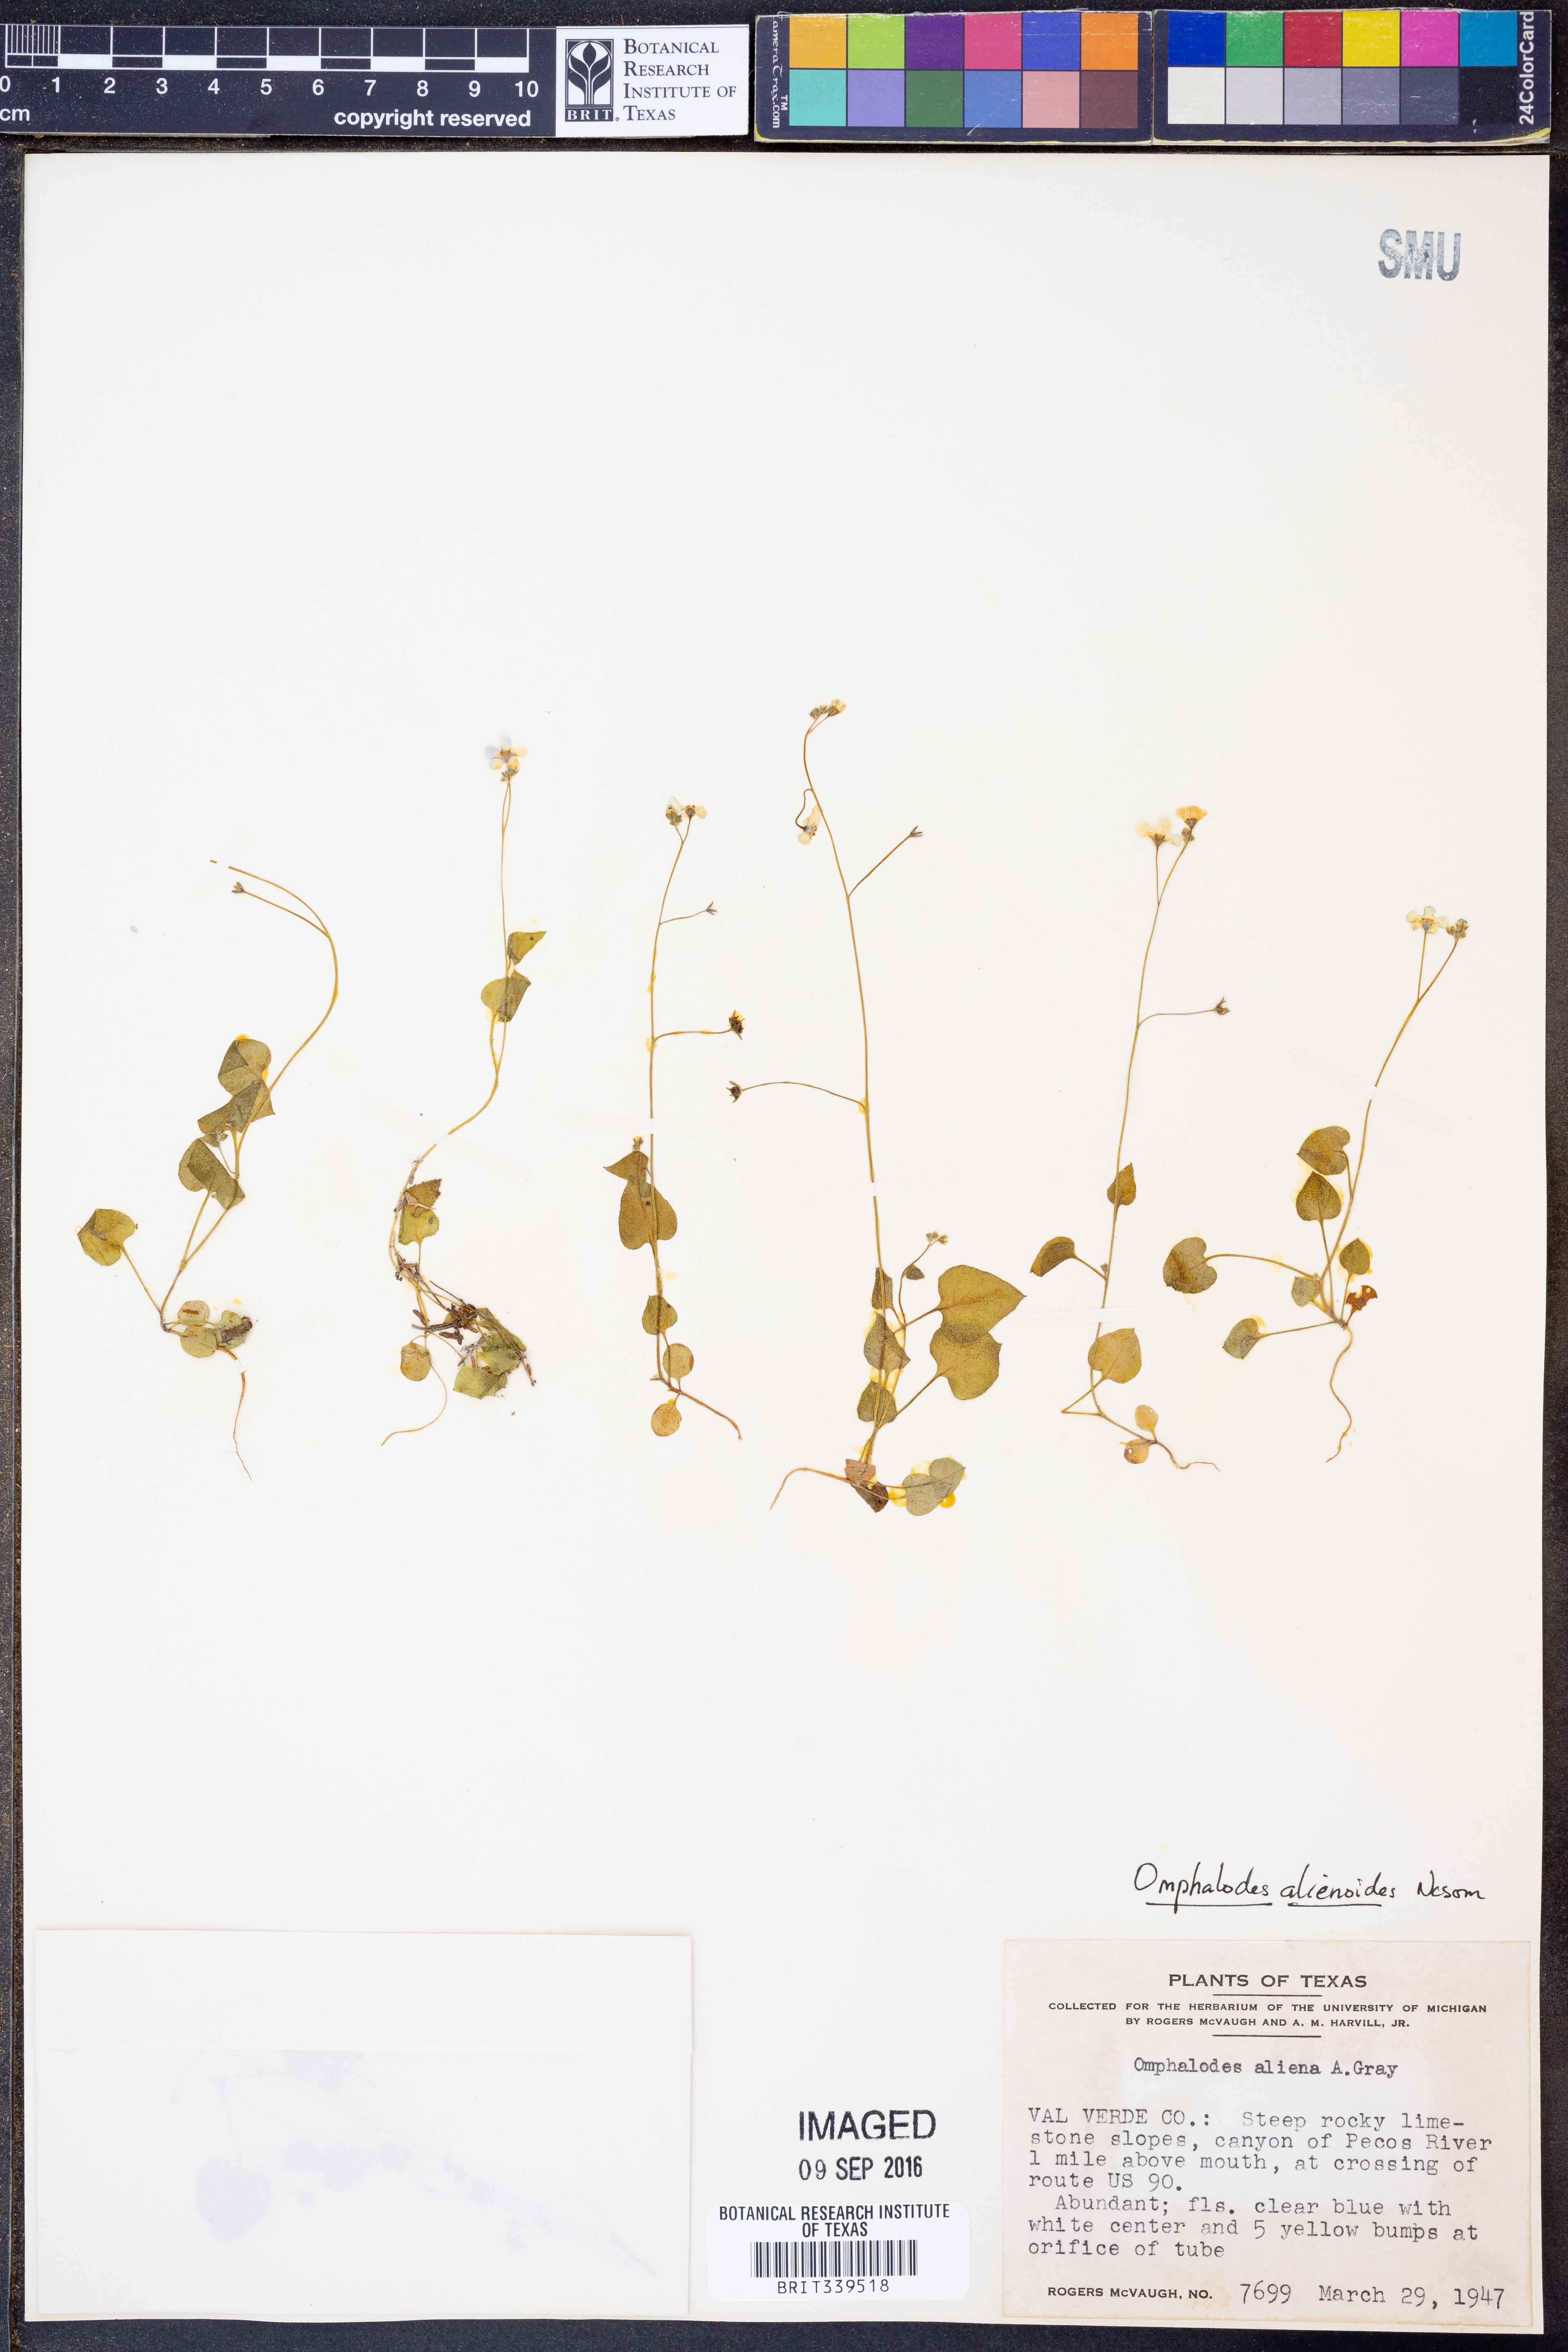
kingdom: Plantae
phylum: Tracheophyta
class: Magnoliopsida
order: Boraginales
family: Boraginaceae
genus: Mimophytum
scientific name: Mimophytum alienoides
